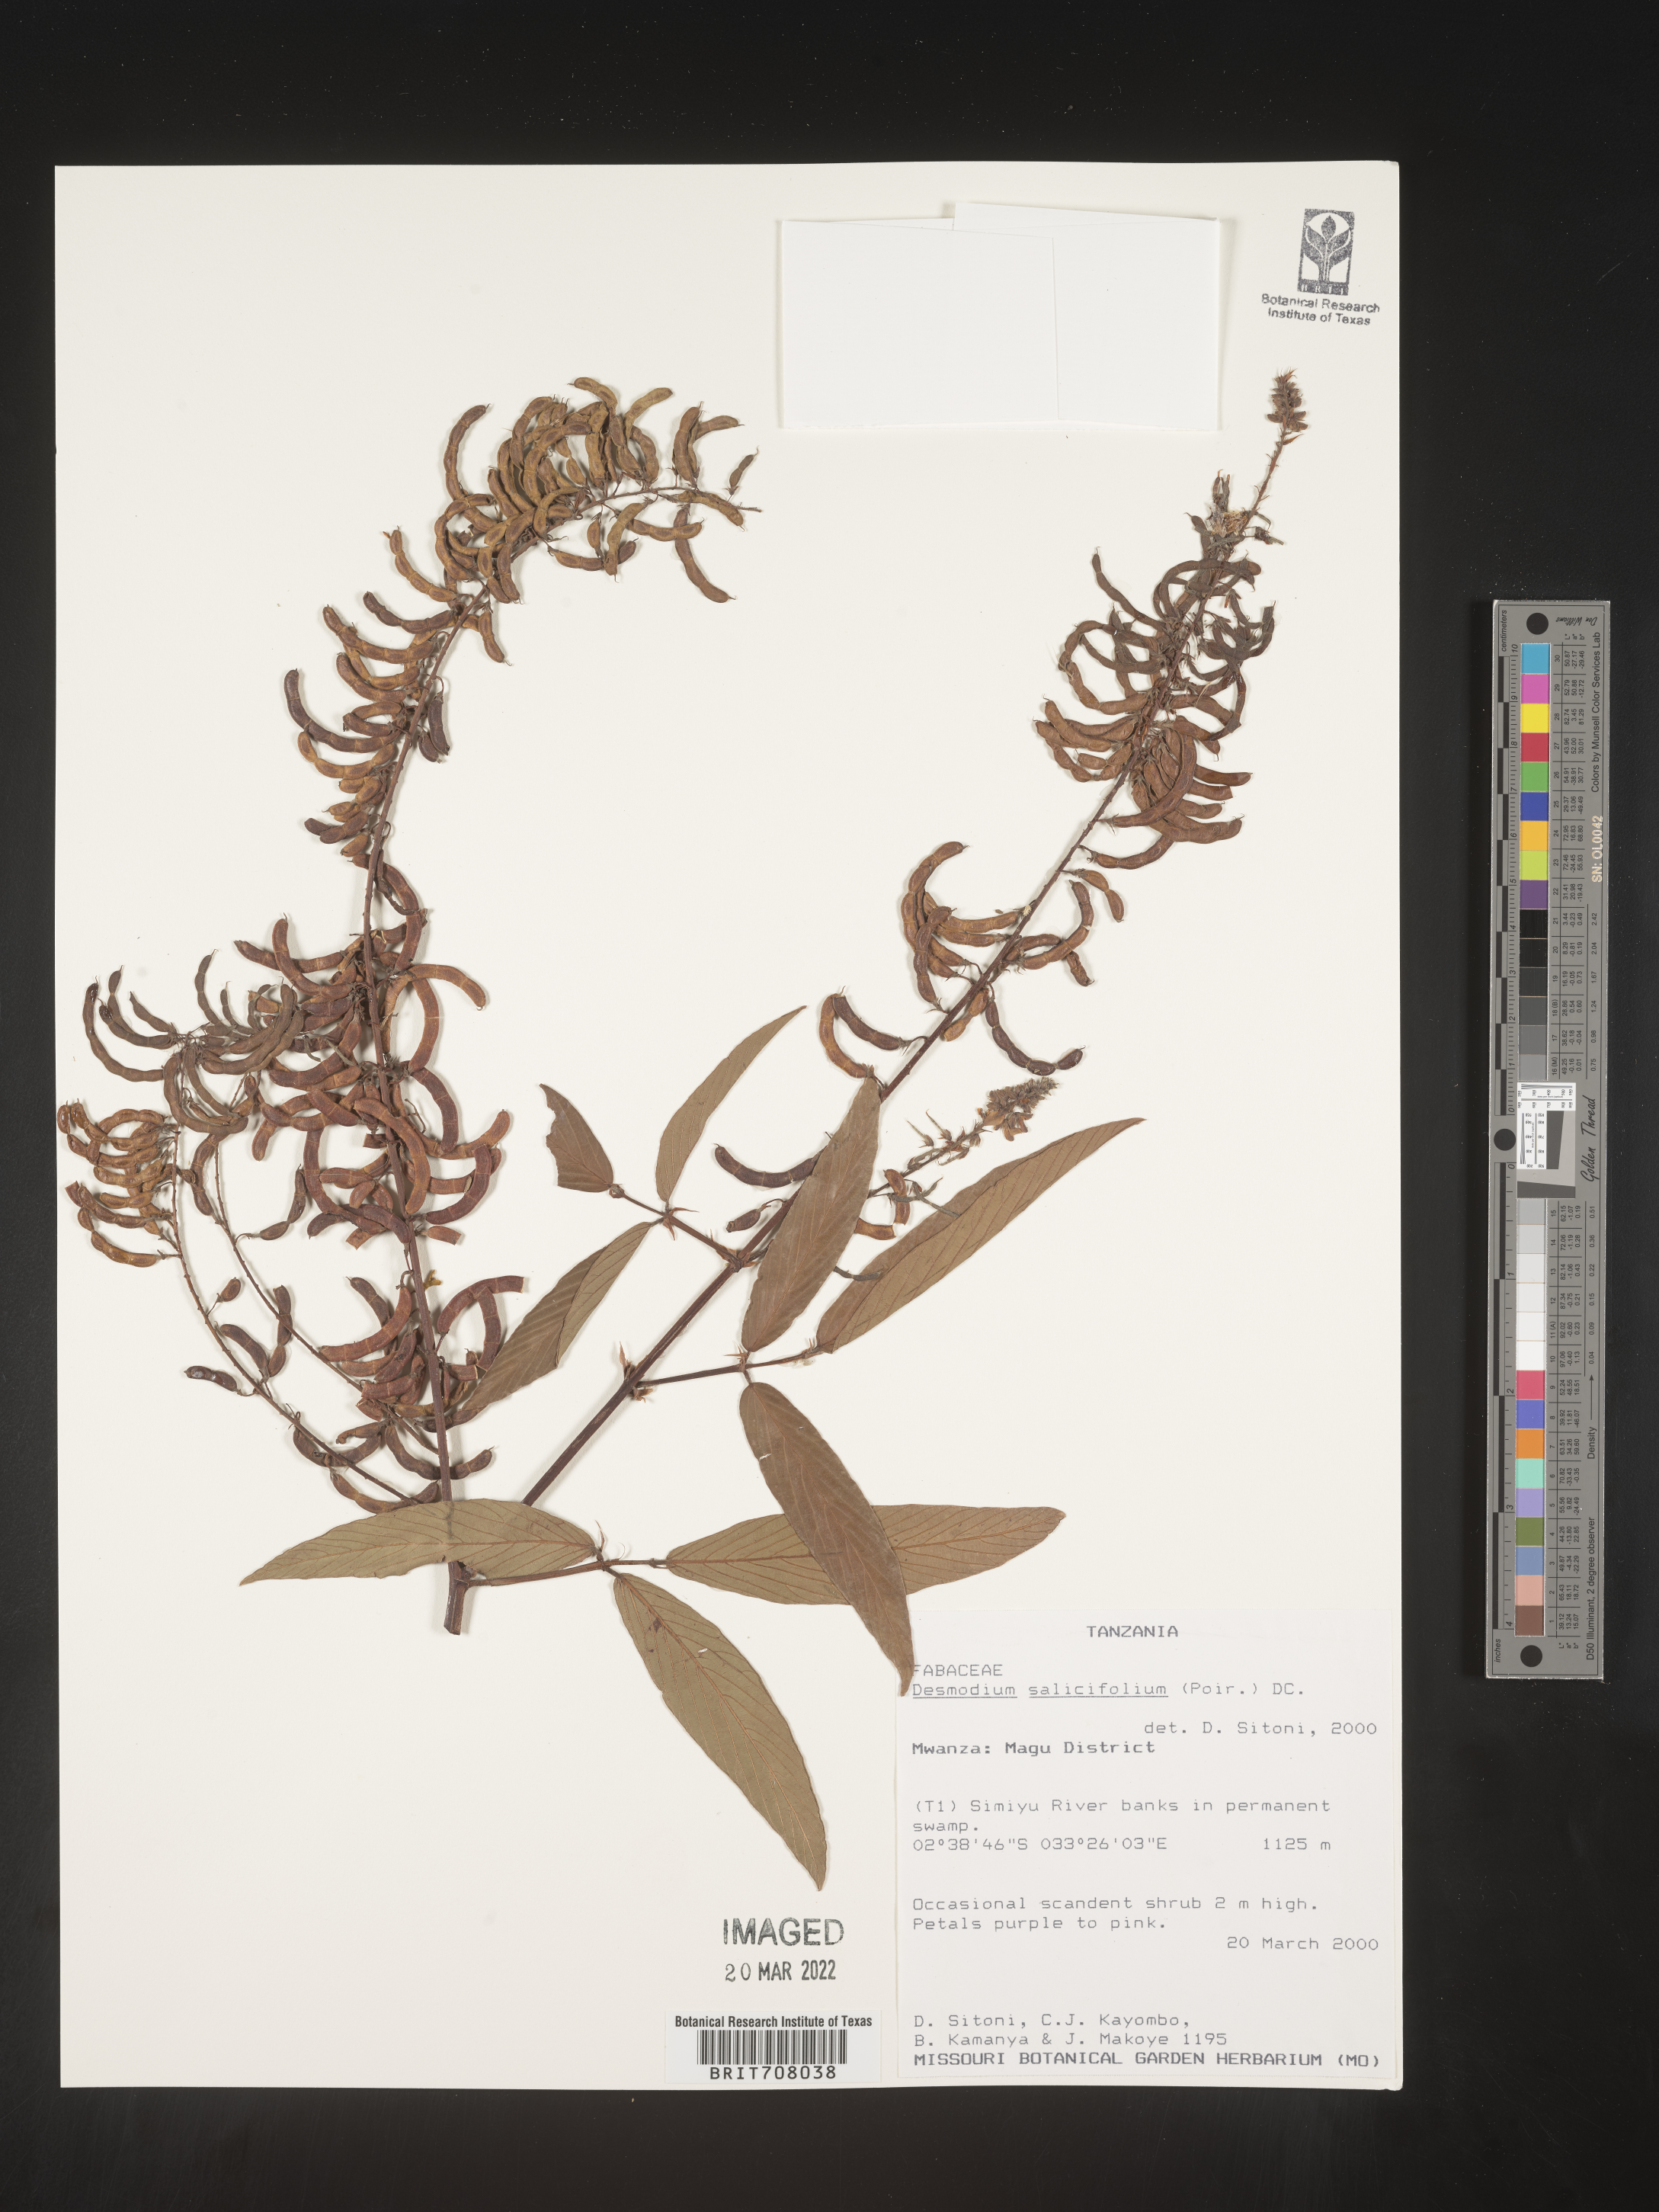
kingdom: Plantae
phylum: Tracheophyta
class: Magnoliopsida
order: Fabales
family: Fabaceae
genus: Desmodium
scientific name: Desmodium
